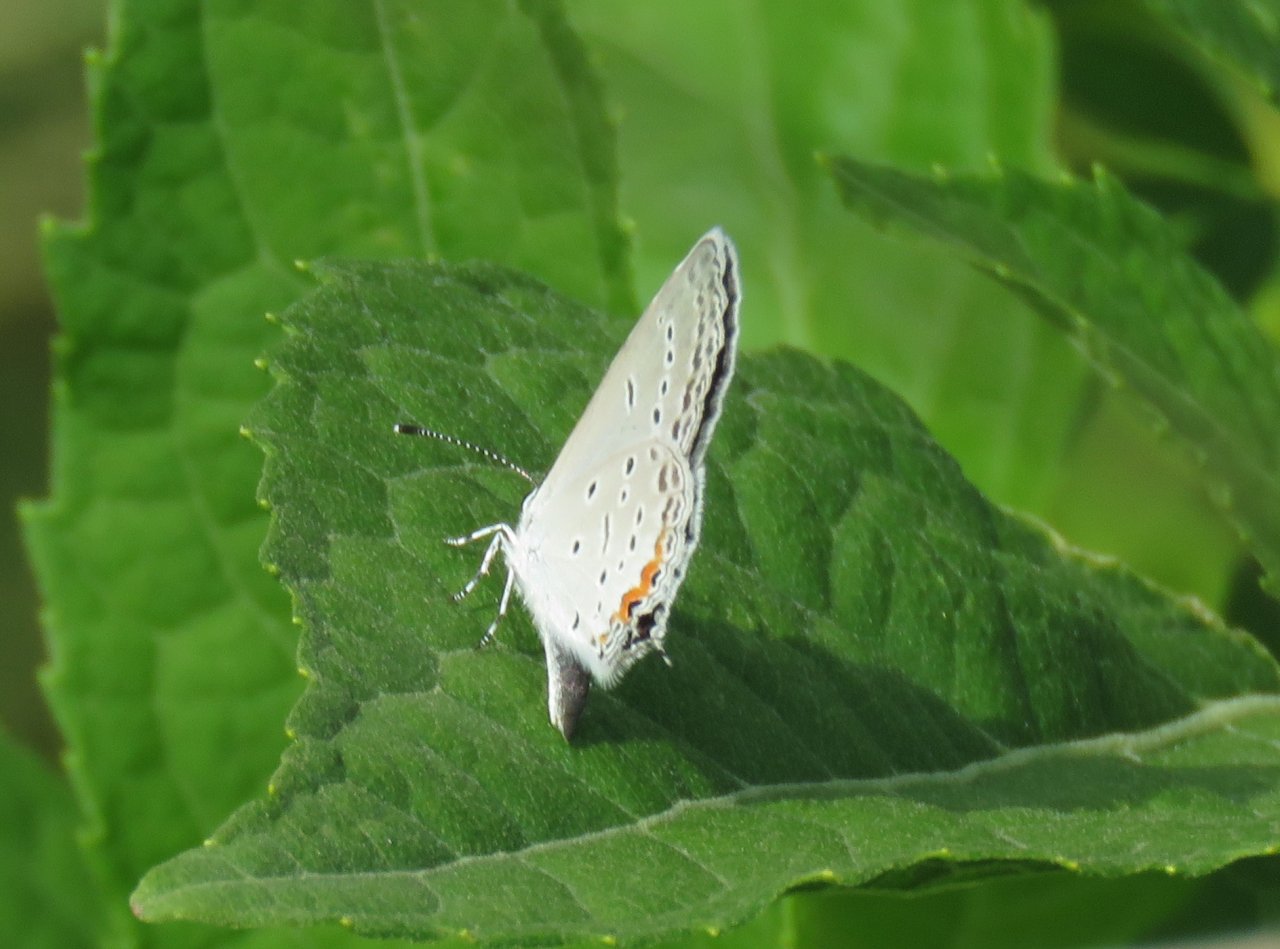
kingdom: Animalia
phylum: Arthropoda
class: Insecta
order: Lepidoptera
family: Lycaenidae
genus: Elkalyce
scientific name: Elkalyce comyntas
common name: Eastern Tailed-Blue
